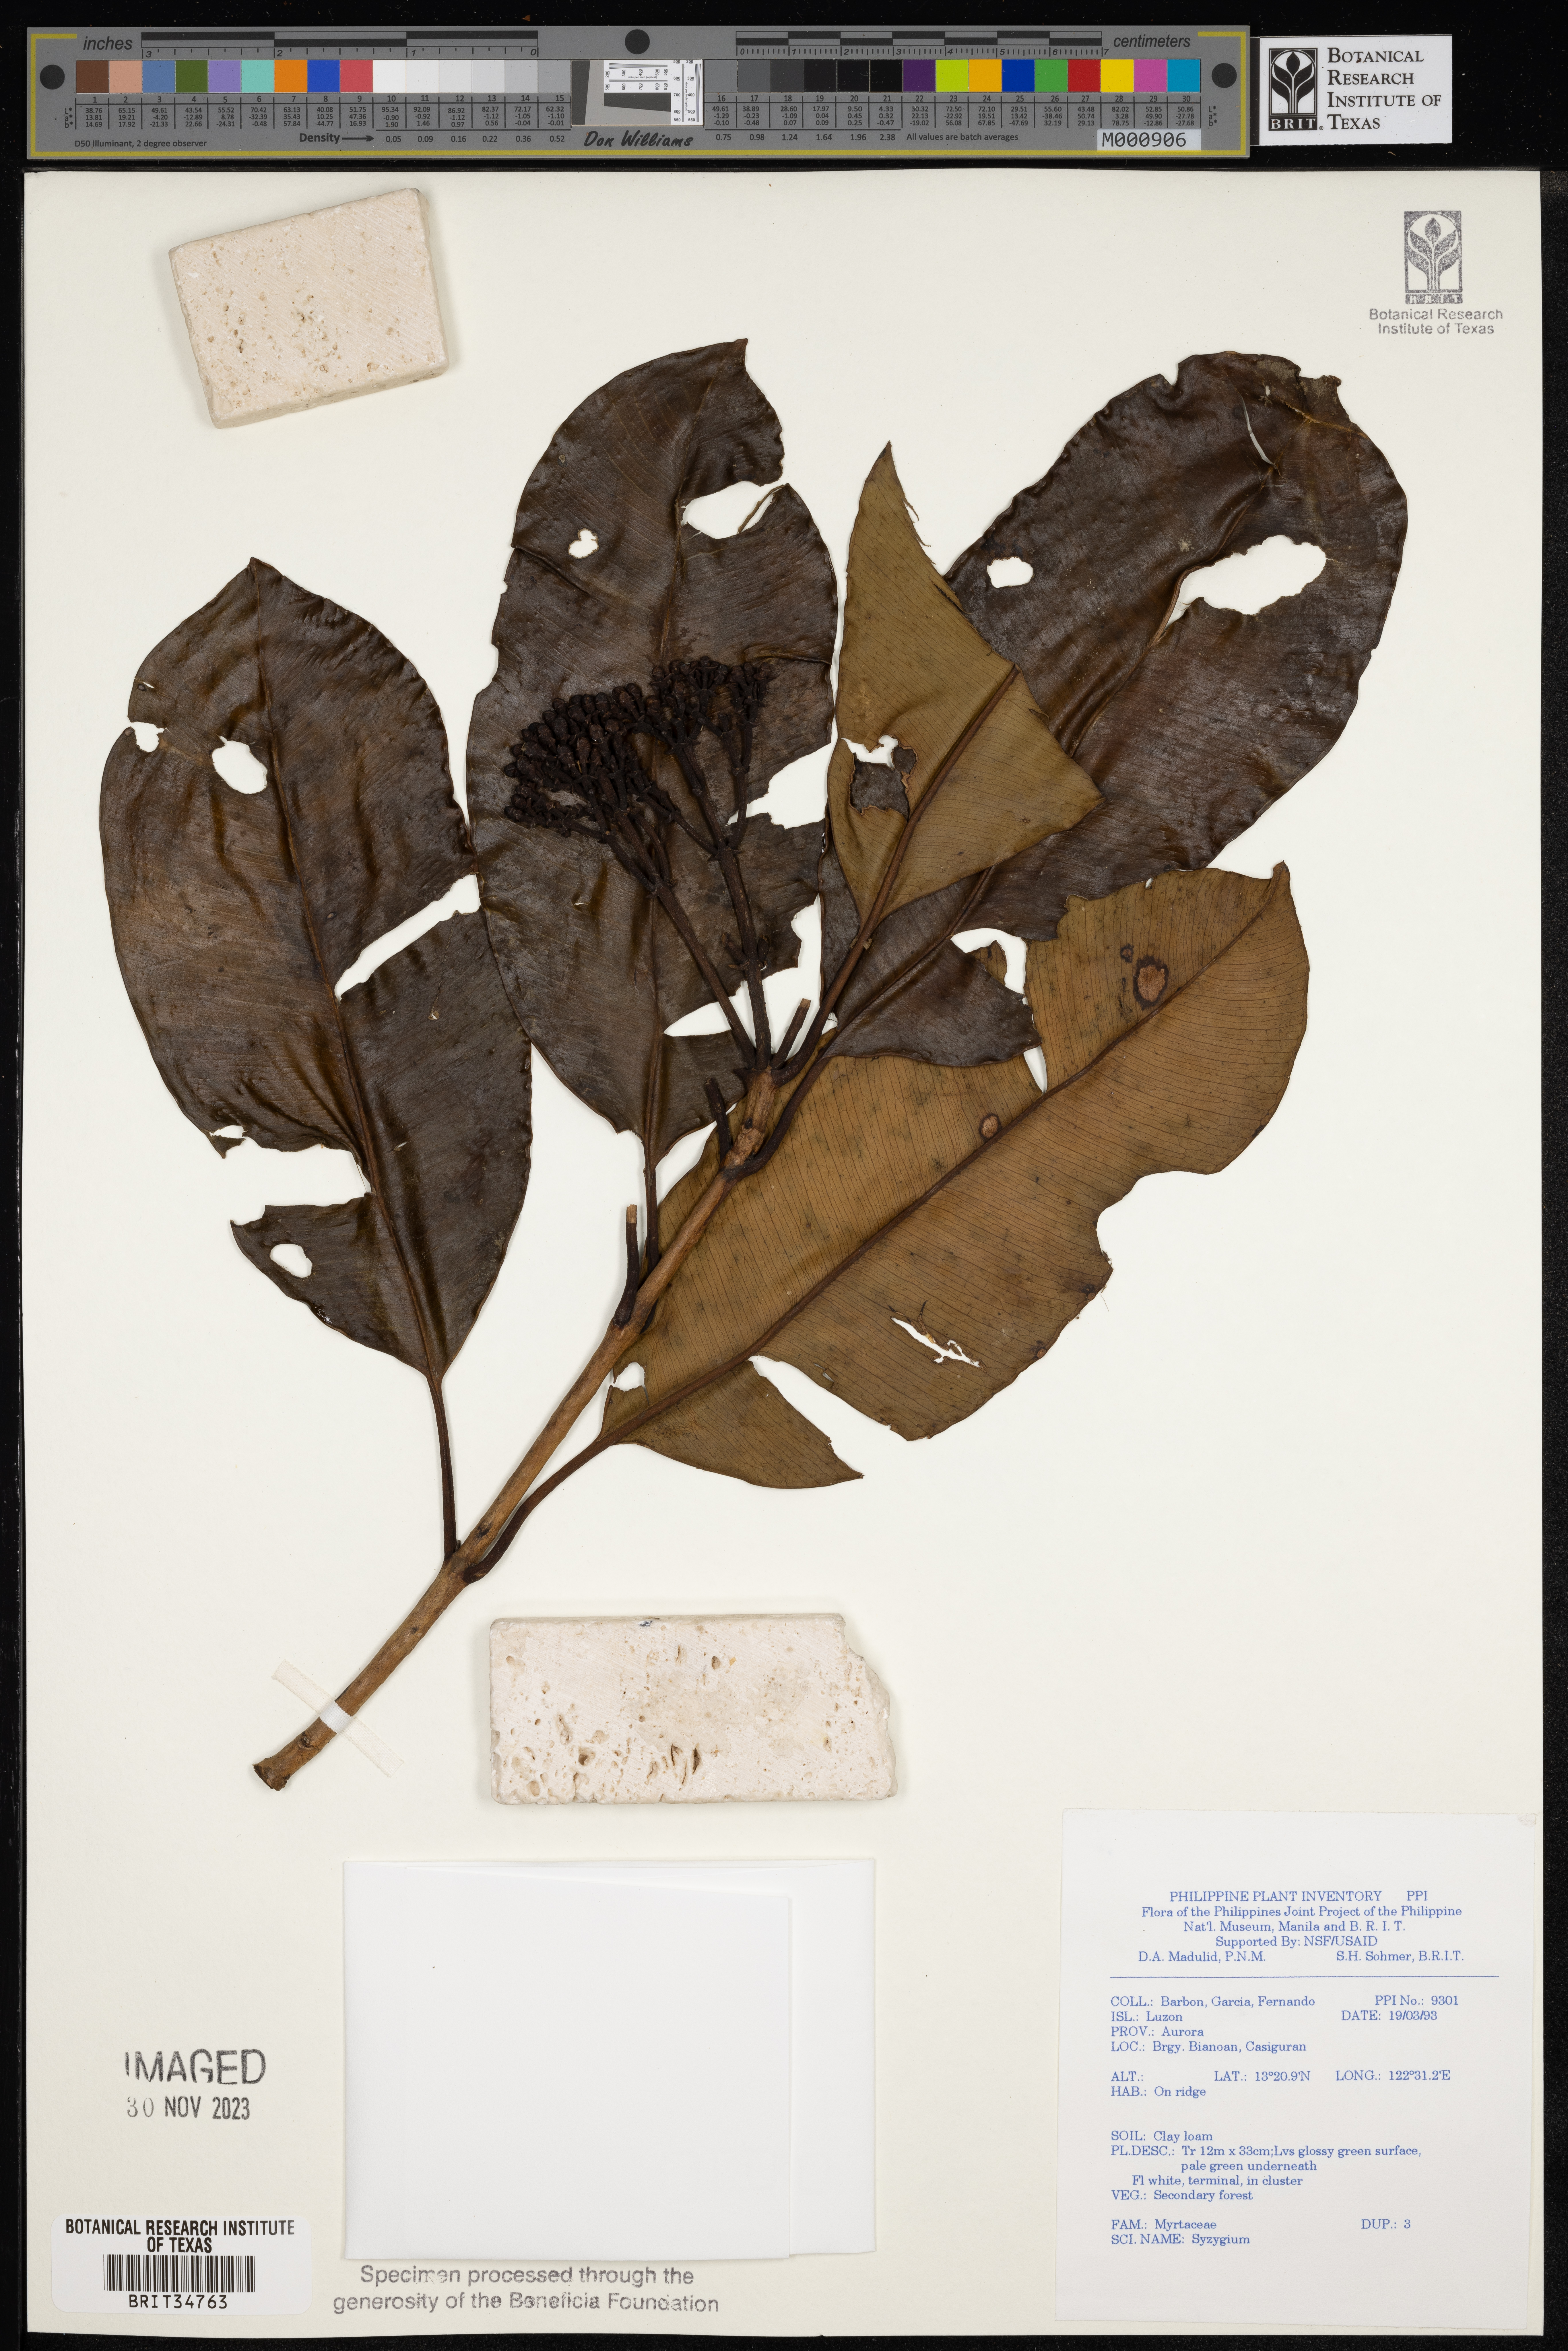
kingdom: Plantae
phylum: Tracheophyta
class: Magnoliopsida
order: Myrtales
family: Myrtaceae
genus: Syzygium
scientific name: Syzygium
